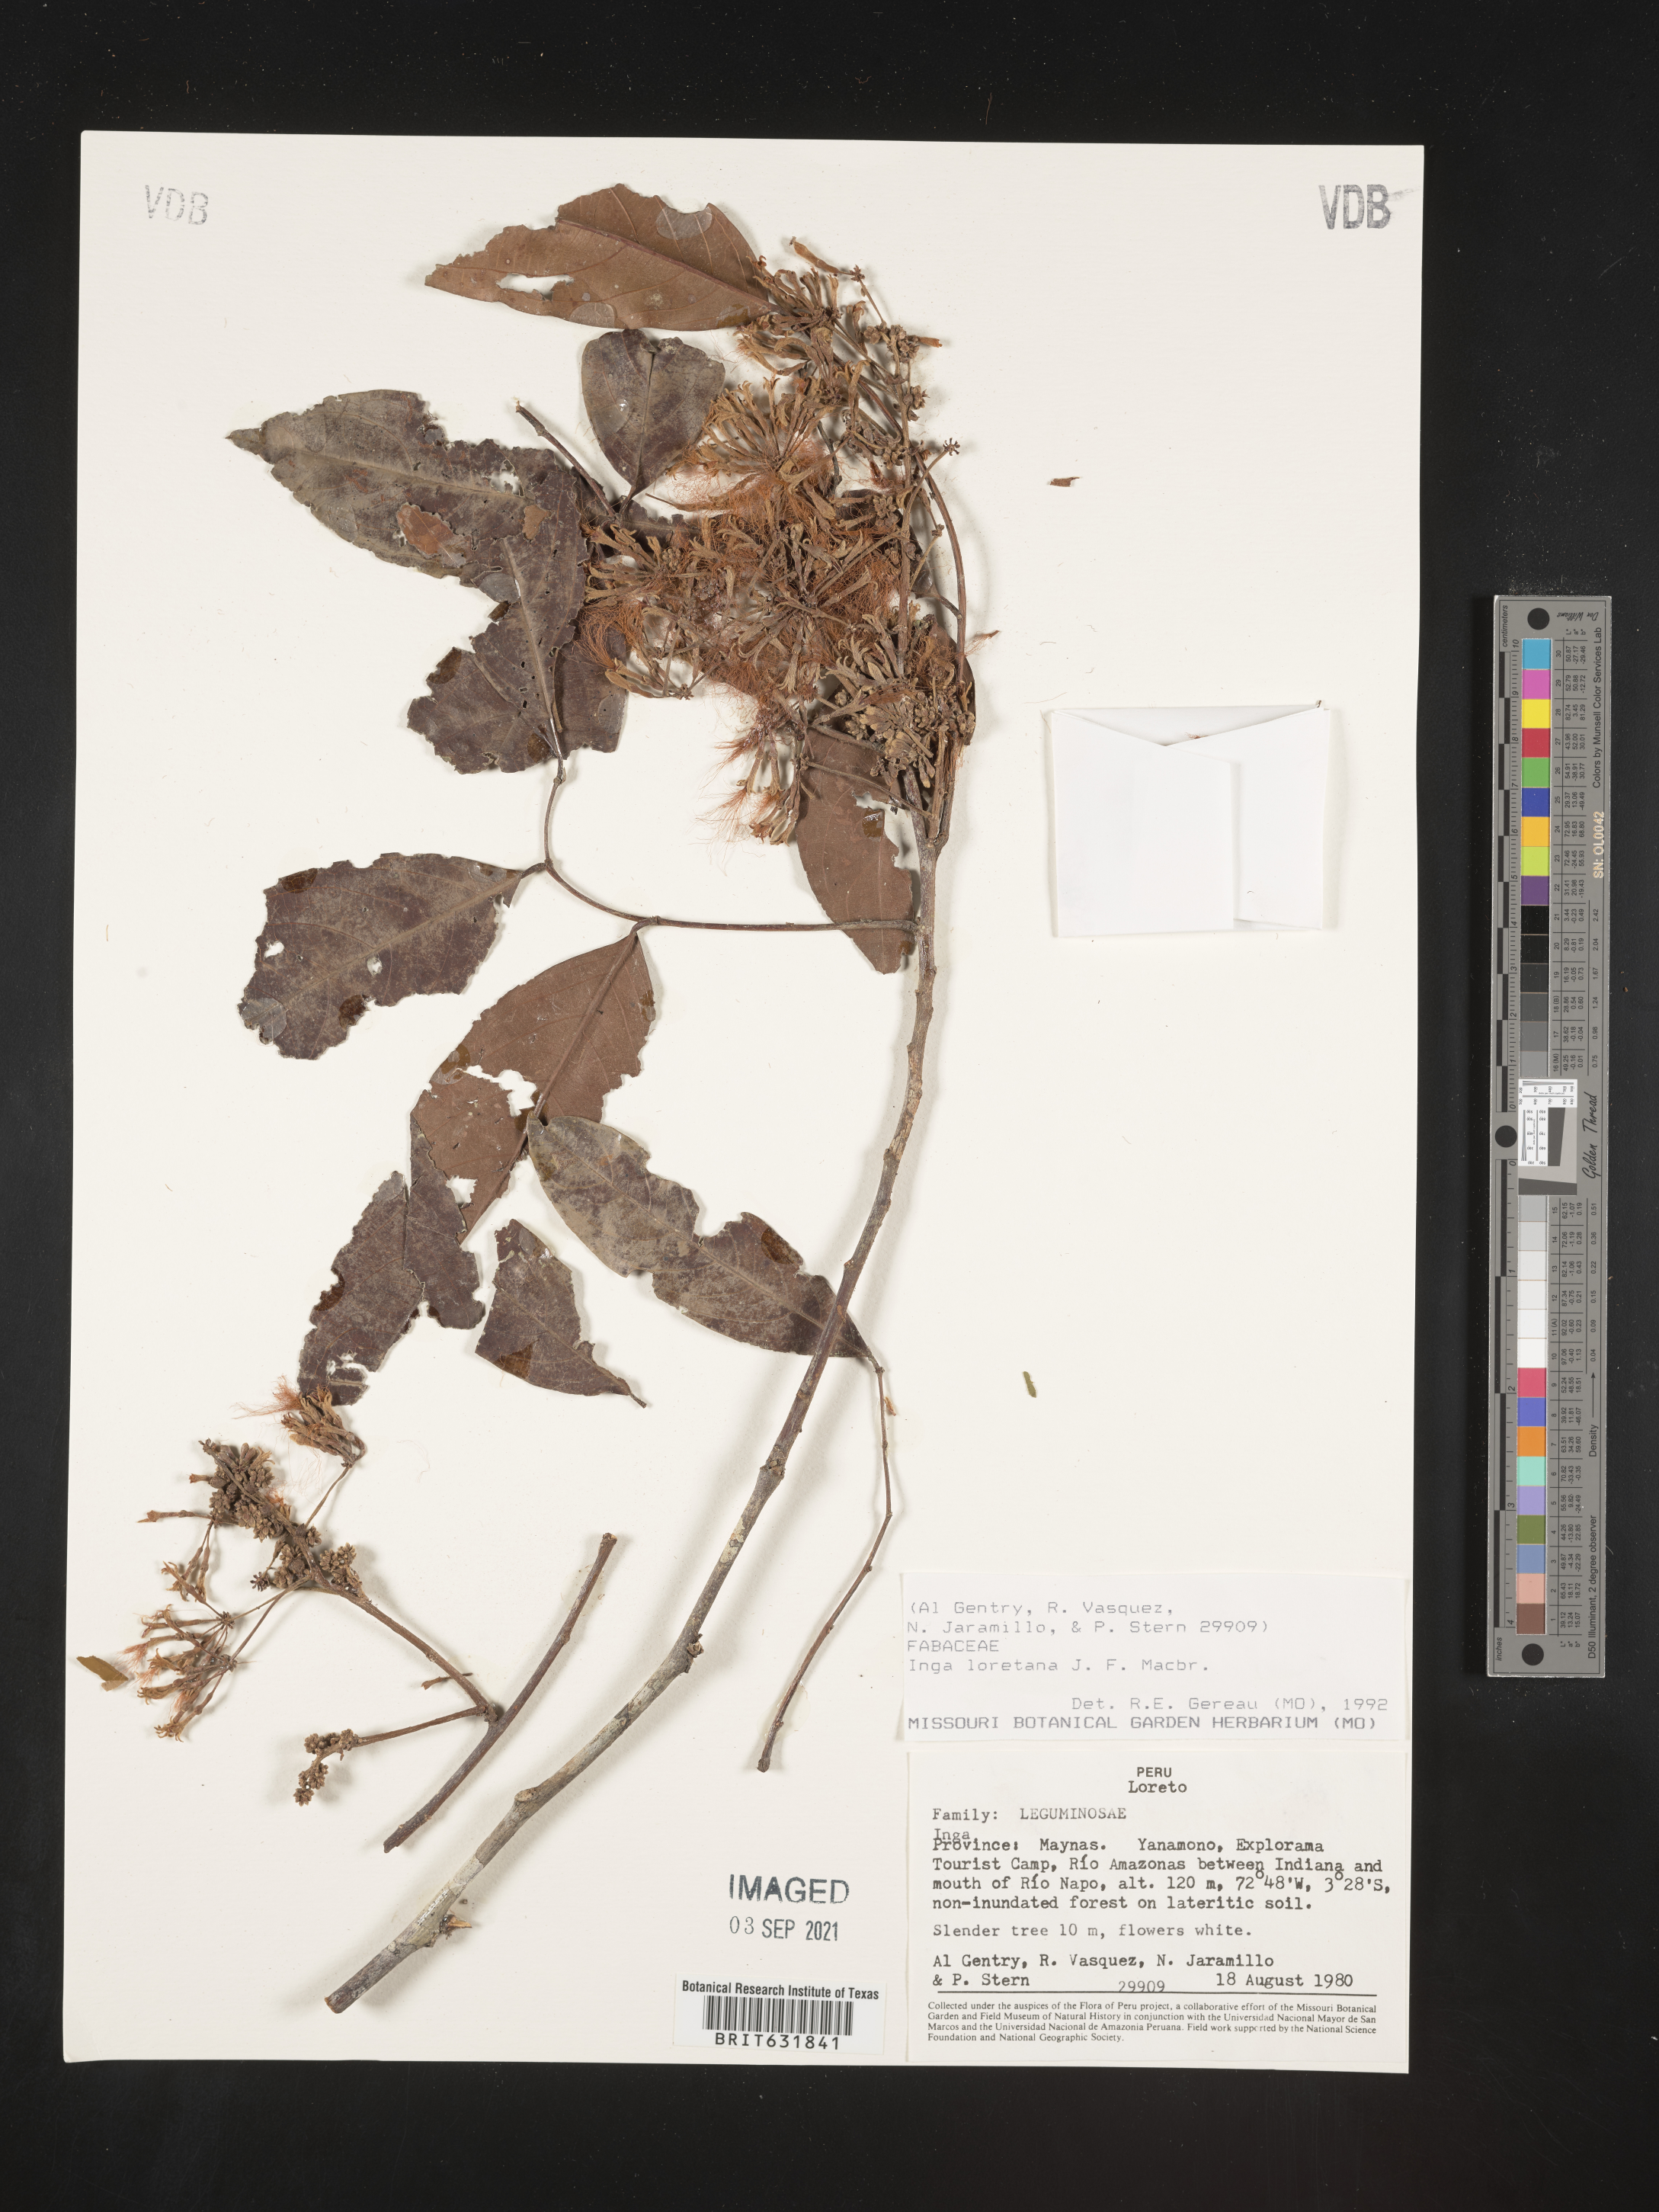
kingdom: Plantae
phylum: Tracheophyta
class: Magnoliopsida
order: Fabales
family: Fabaceae
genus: Inga
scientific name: Inga
